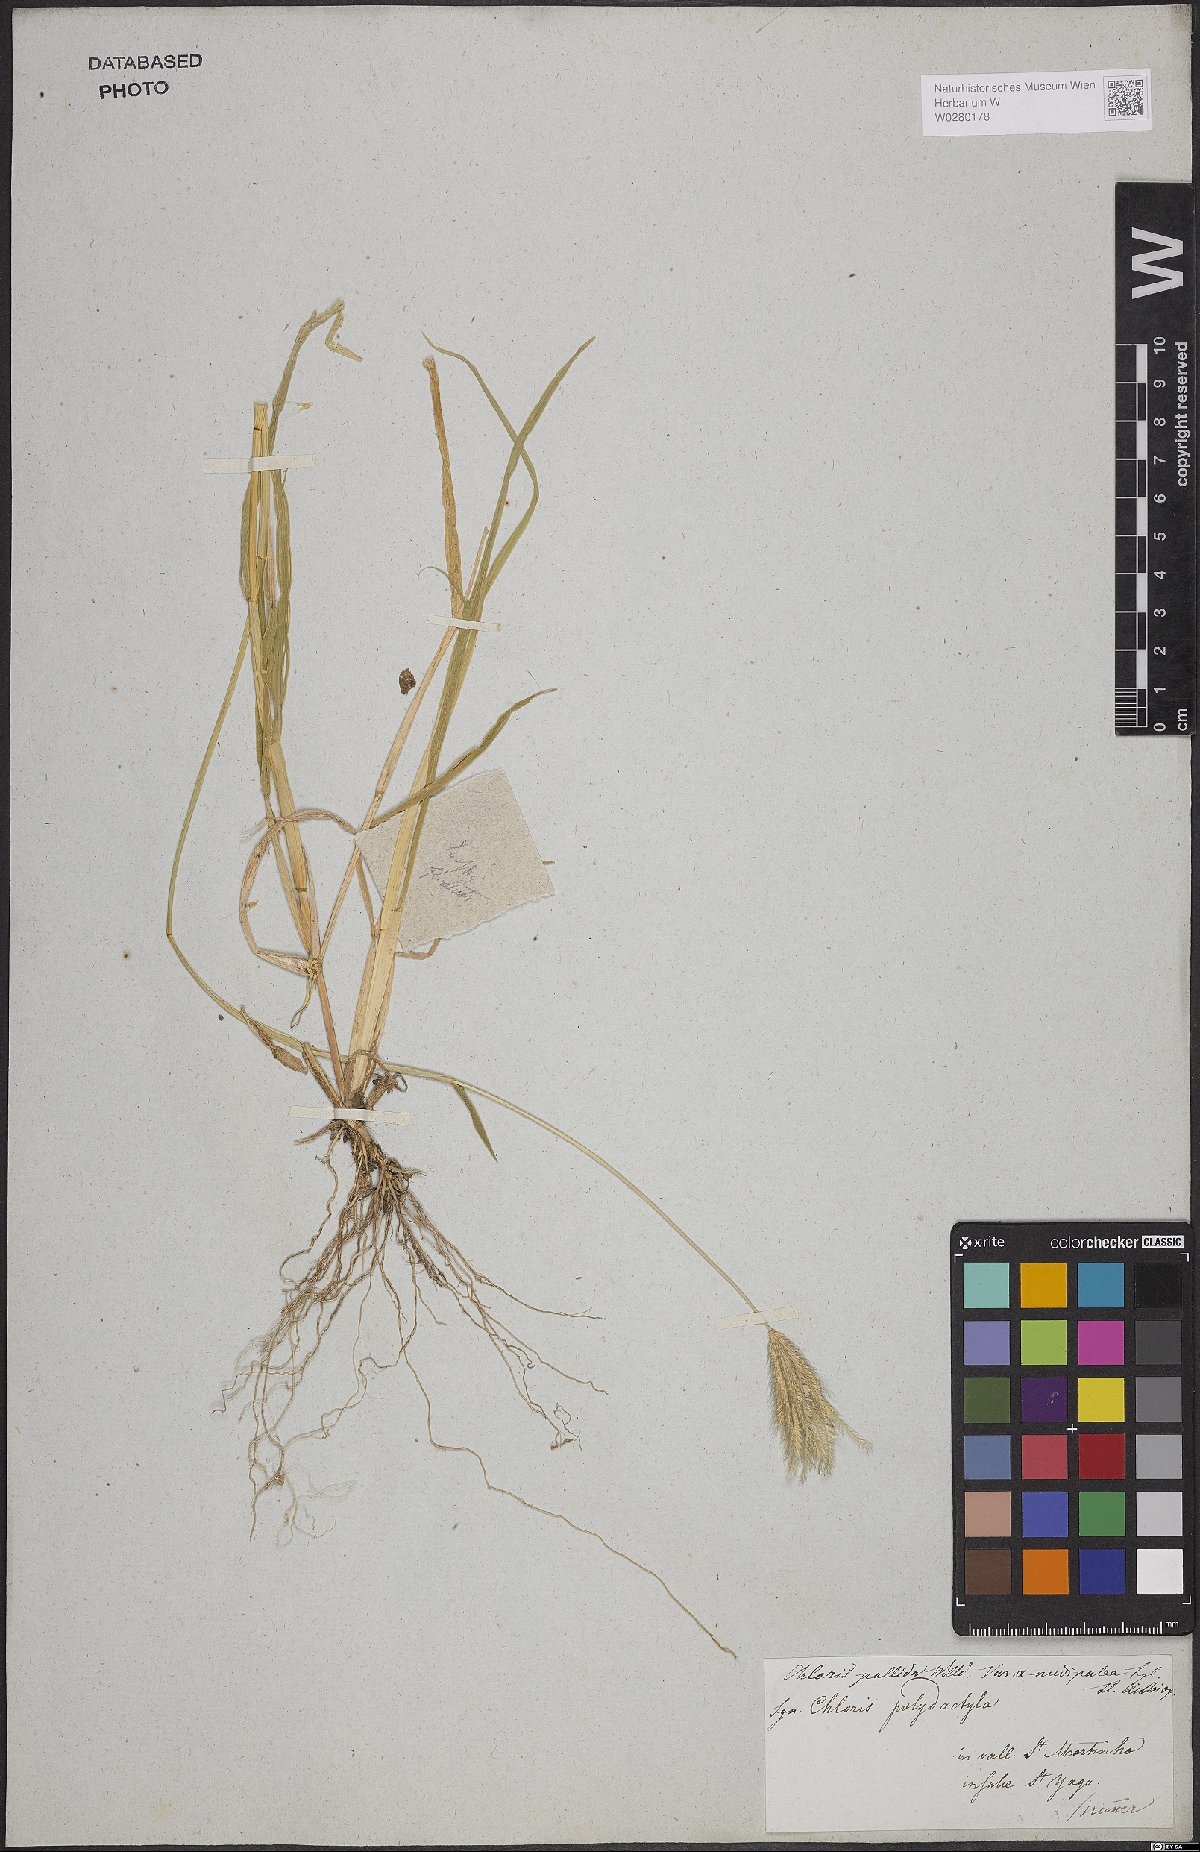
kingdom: Plantae
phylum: Tracheophyta
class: Liliopsida
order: Poales
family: Poaceae
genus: Chloris
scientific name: Chloris radiata
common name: Radiate fingergrass
